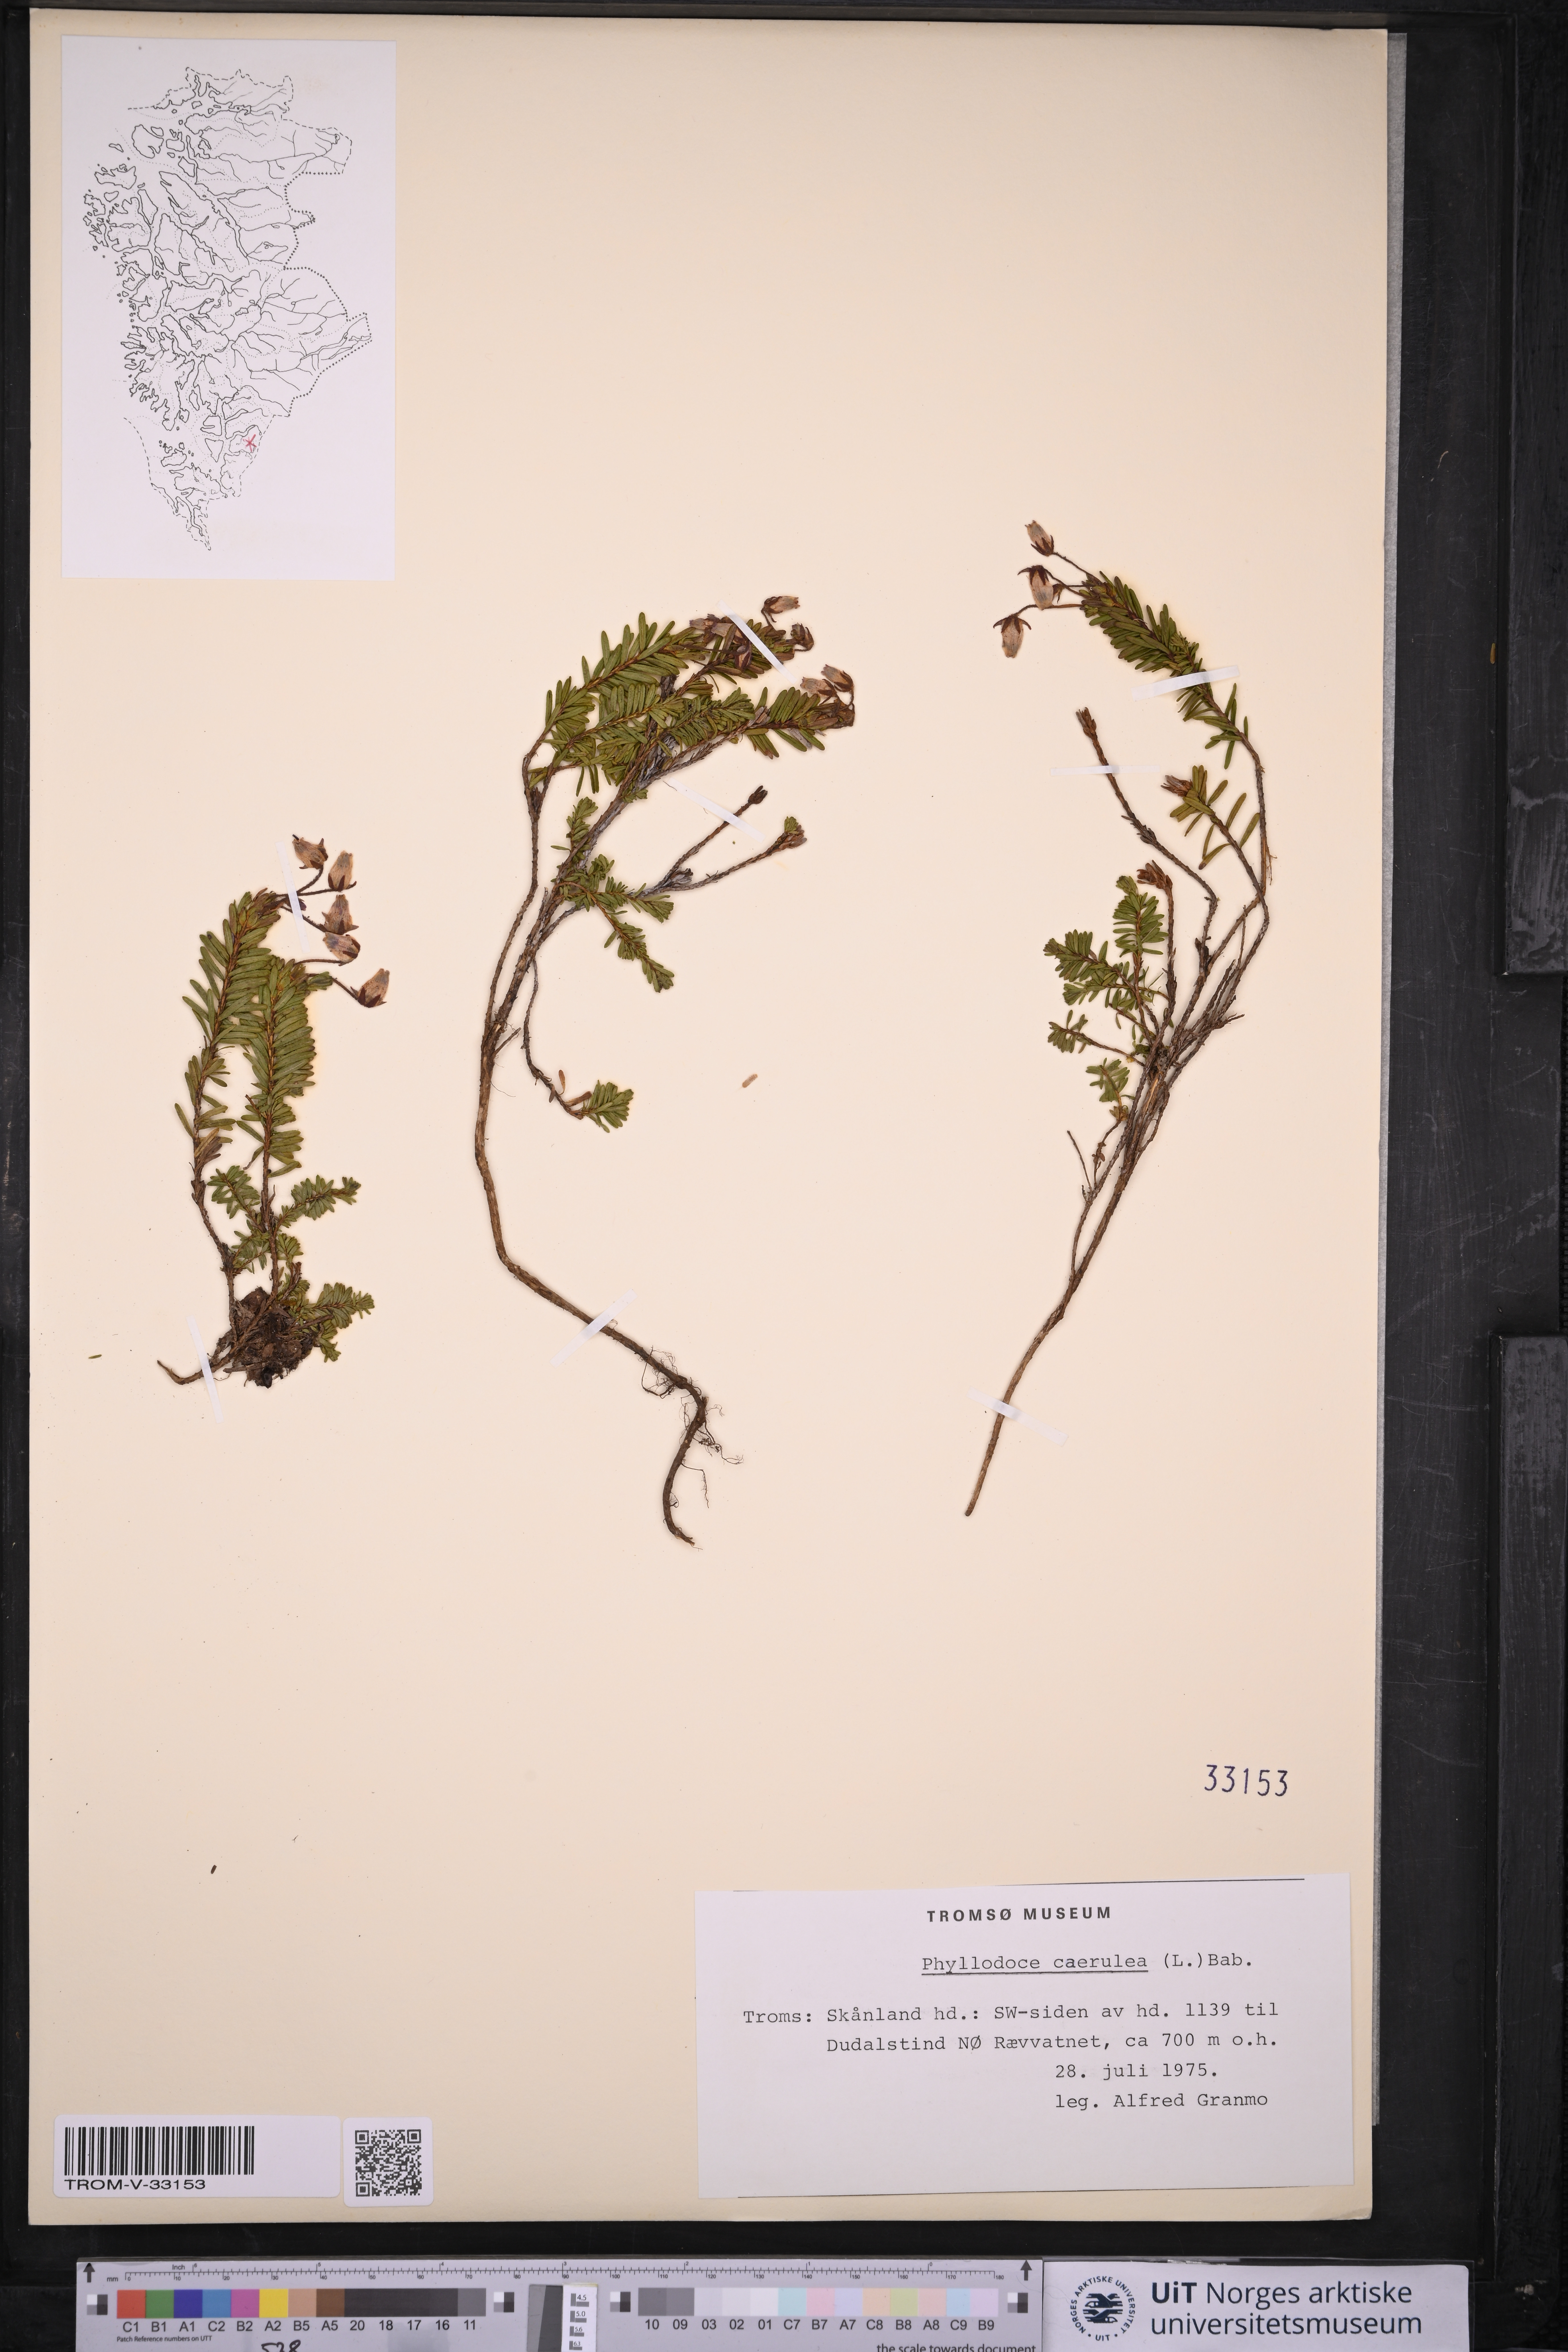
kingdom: Plantae
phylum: Tracheophyta
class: Magnoliopsida
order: Ericales
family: Ericaceae
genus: Phyllodoce
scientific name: Phyllodoce caerulea
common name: Blue heath
